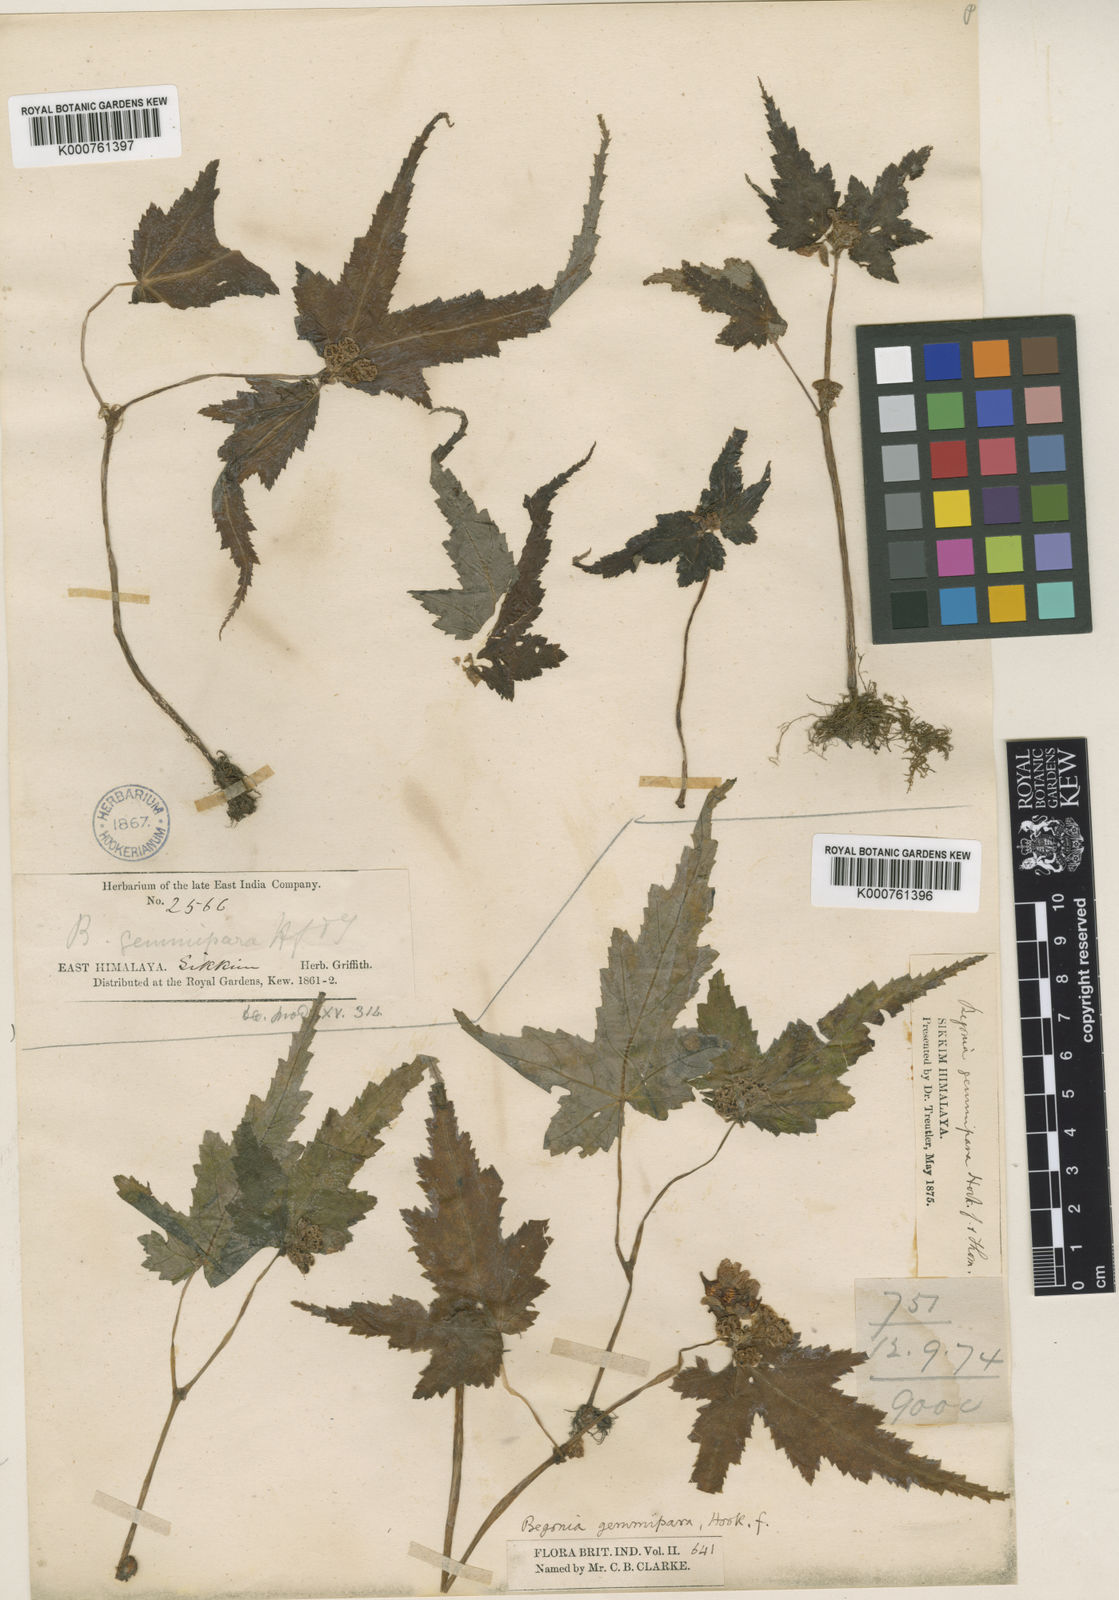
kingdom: Plantae
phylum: Tracheophyta
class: Magnoliopsida
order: Cucurbitales
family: Begoniaceae
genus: Begonia
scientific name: Begonia gemmipara
